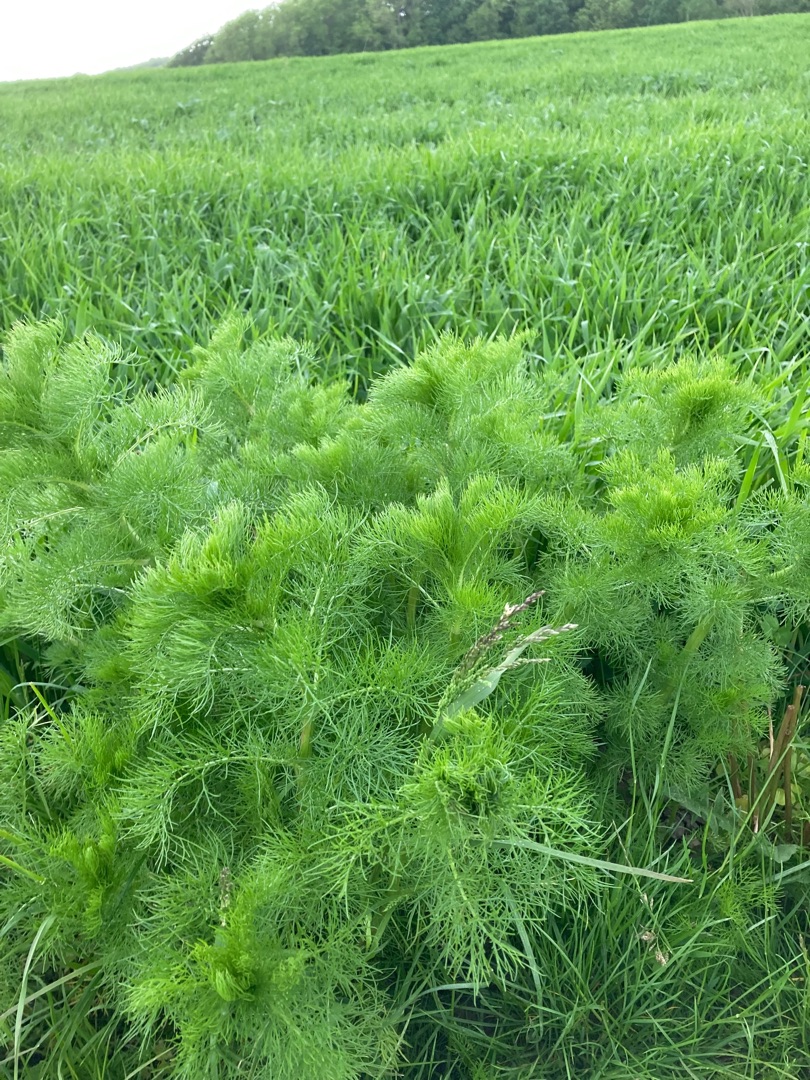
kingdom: Plantae
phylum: Tracheophyta
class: Magnoliopsida
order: Asterales
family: Asteraceae
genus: Tripleurospermum
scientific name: Tripleurospermum inodorum
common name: Lugtløs kamille
